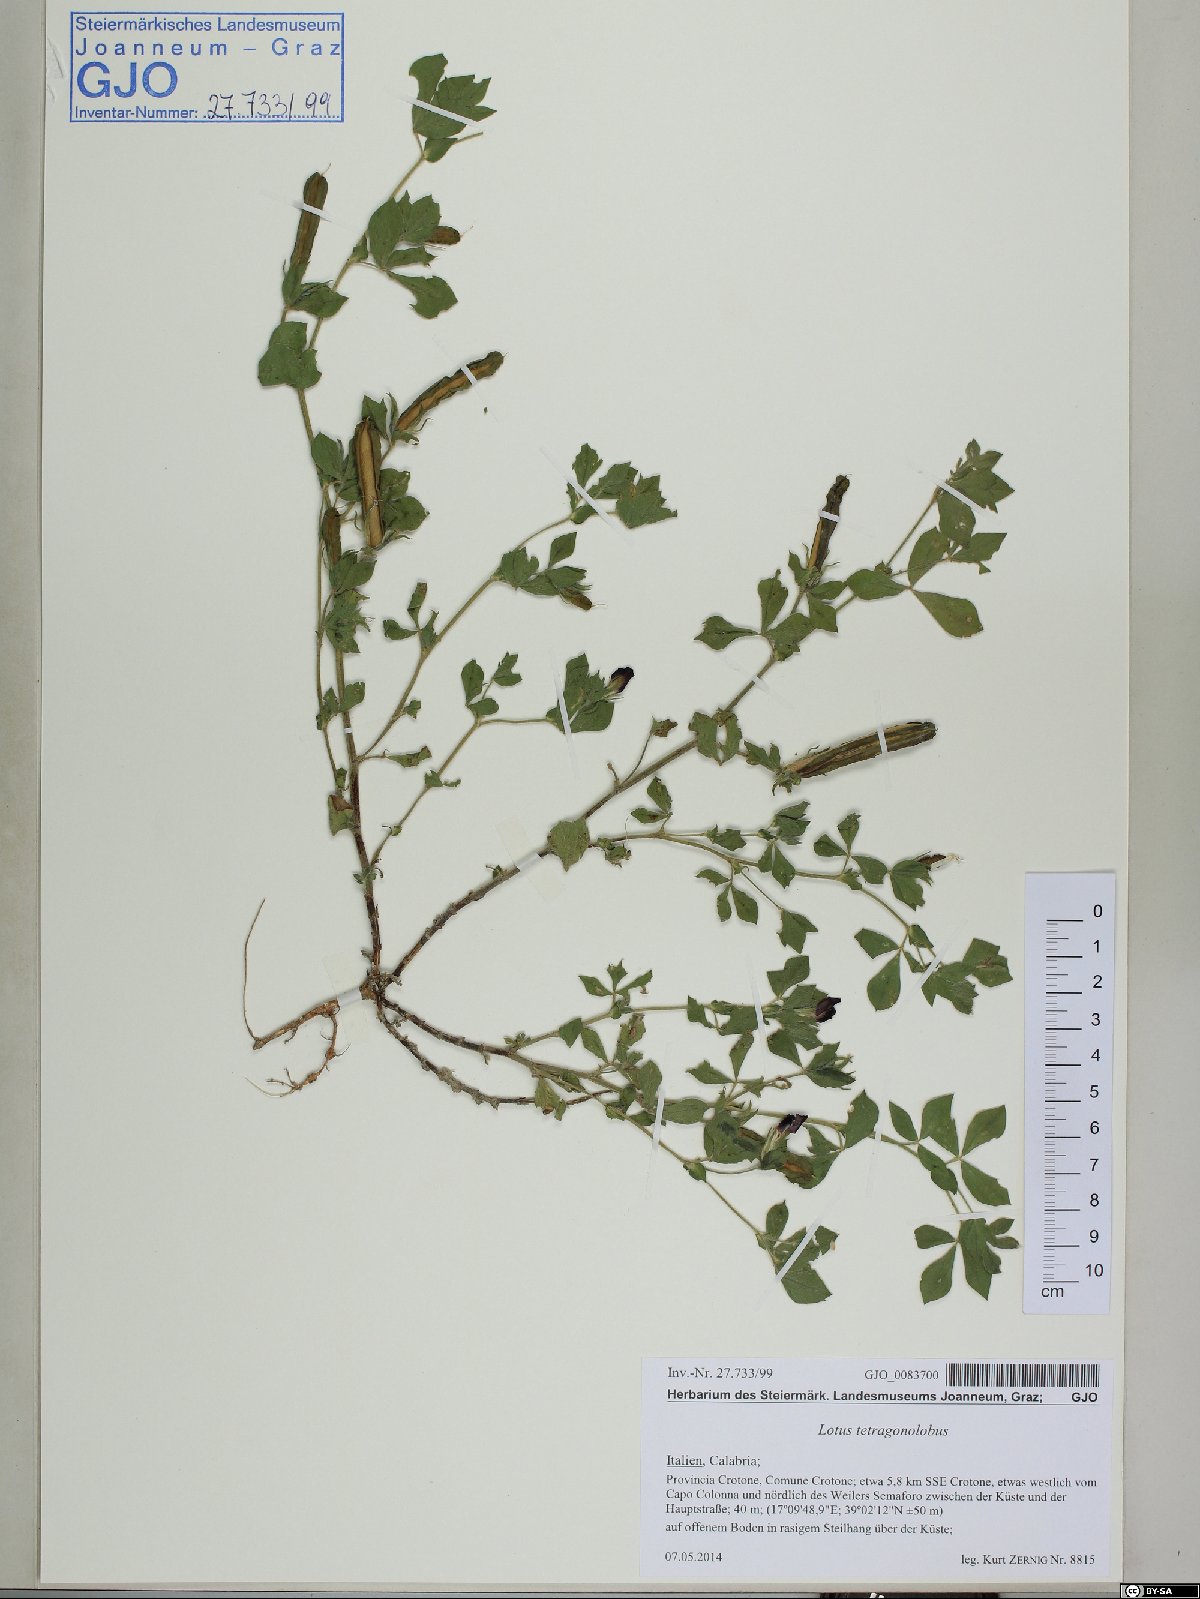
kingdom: Plantae
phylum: Tracheophyta
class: Magnoliopsida
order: Fabales
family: Fabaceae
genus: Lotus
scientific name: Lotus tetragonolobus
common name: Asparagus-pea
